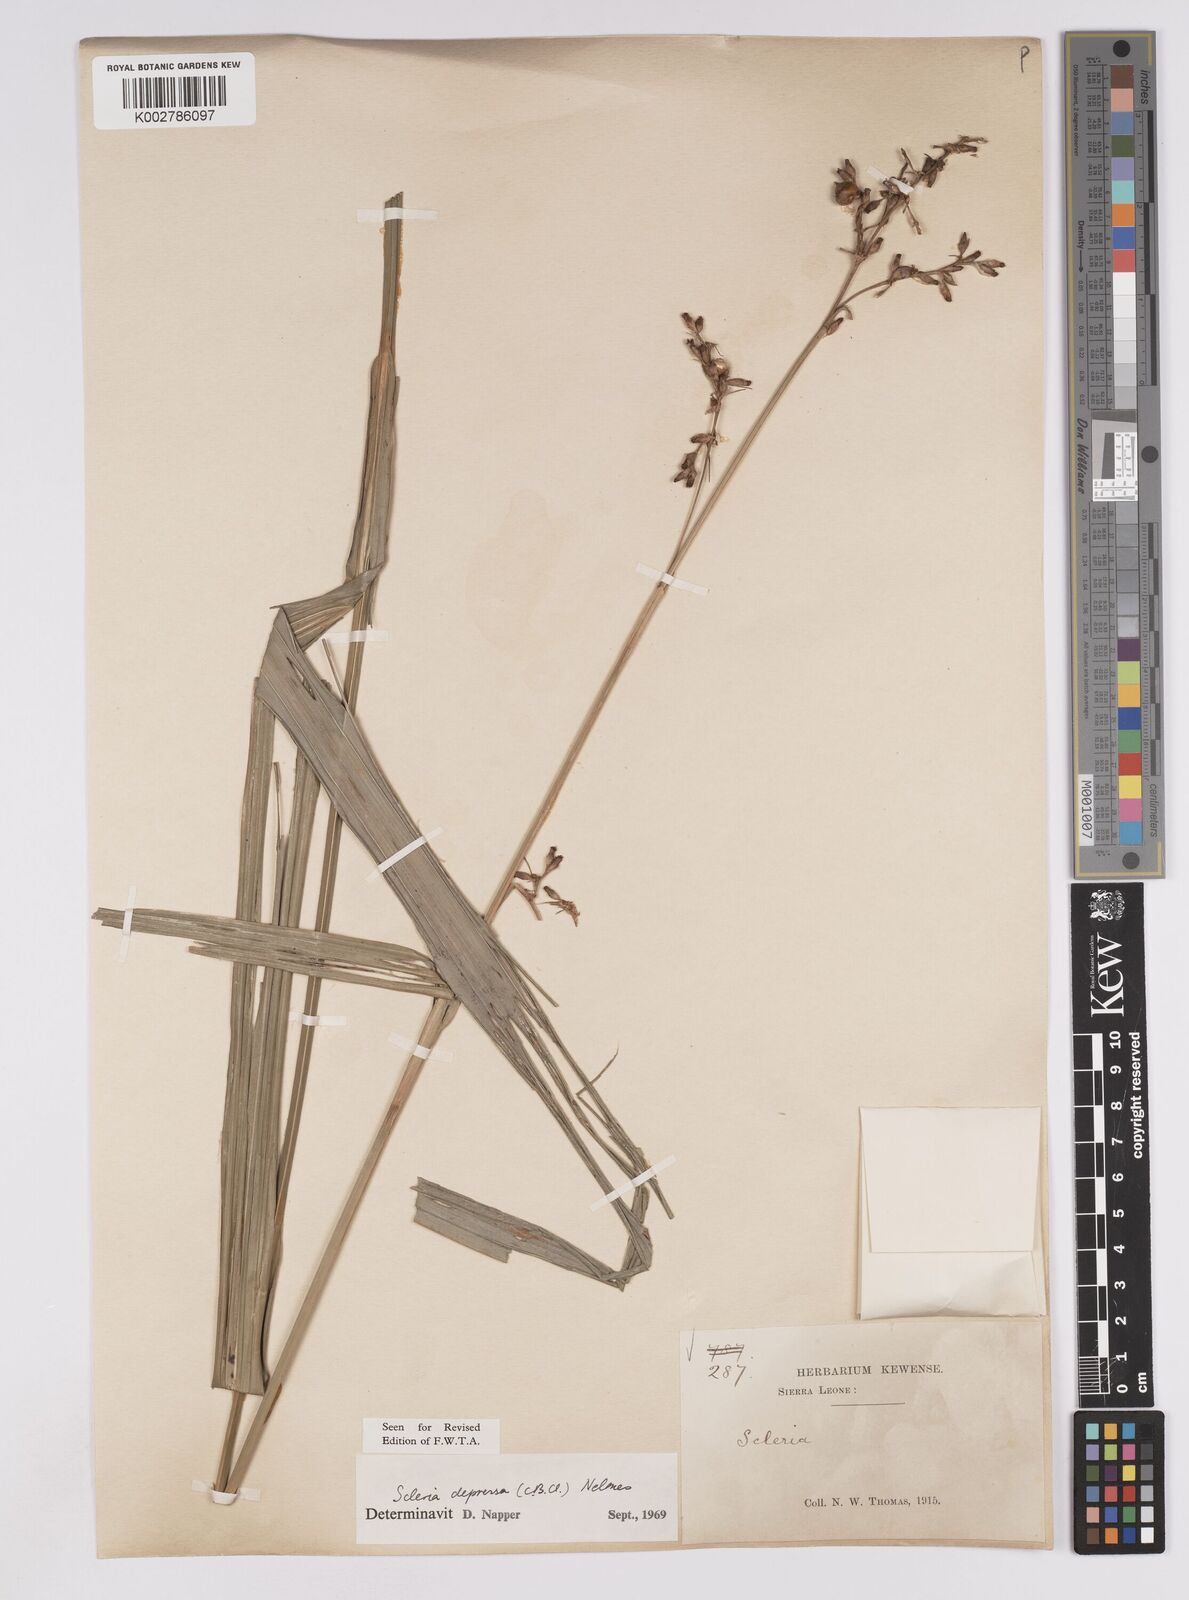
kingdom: Plantae
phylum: Tracheophyta
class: Liliopsida
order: Poales
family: Cyperaceae
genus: Scleria
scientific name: Scleria depressa
